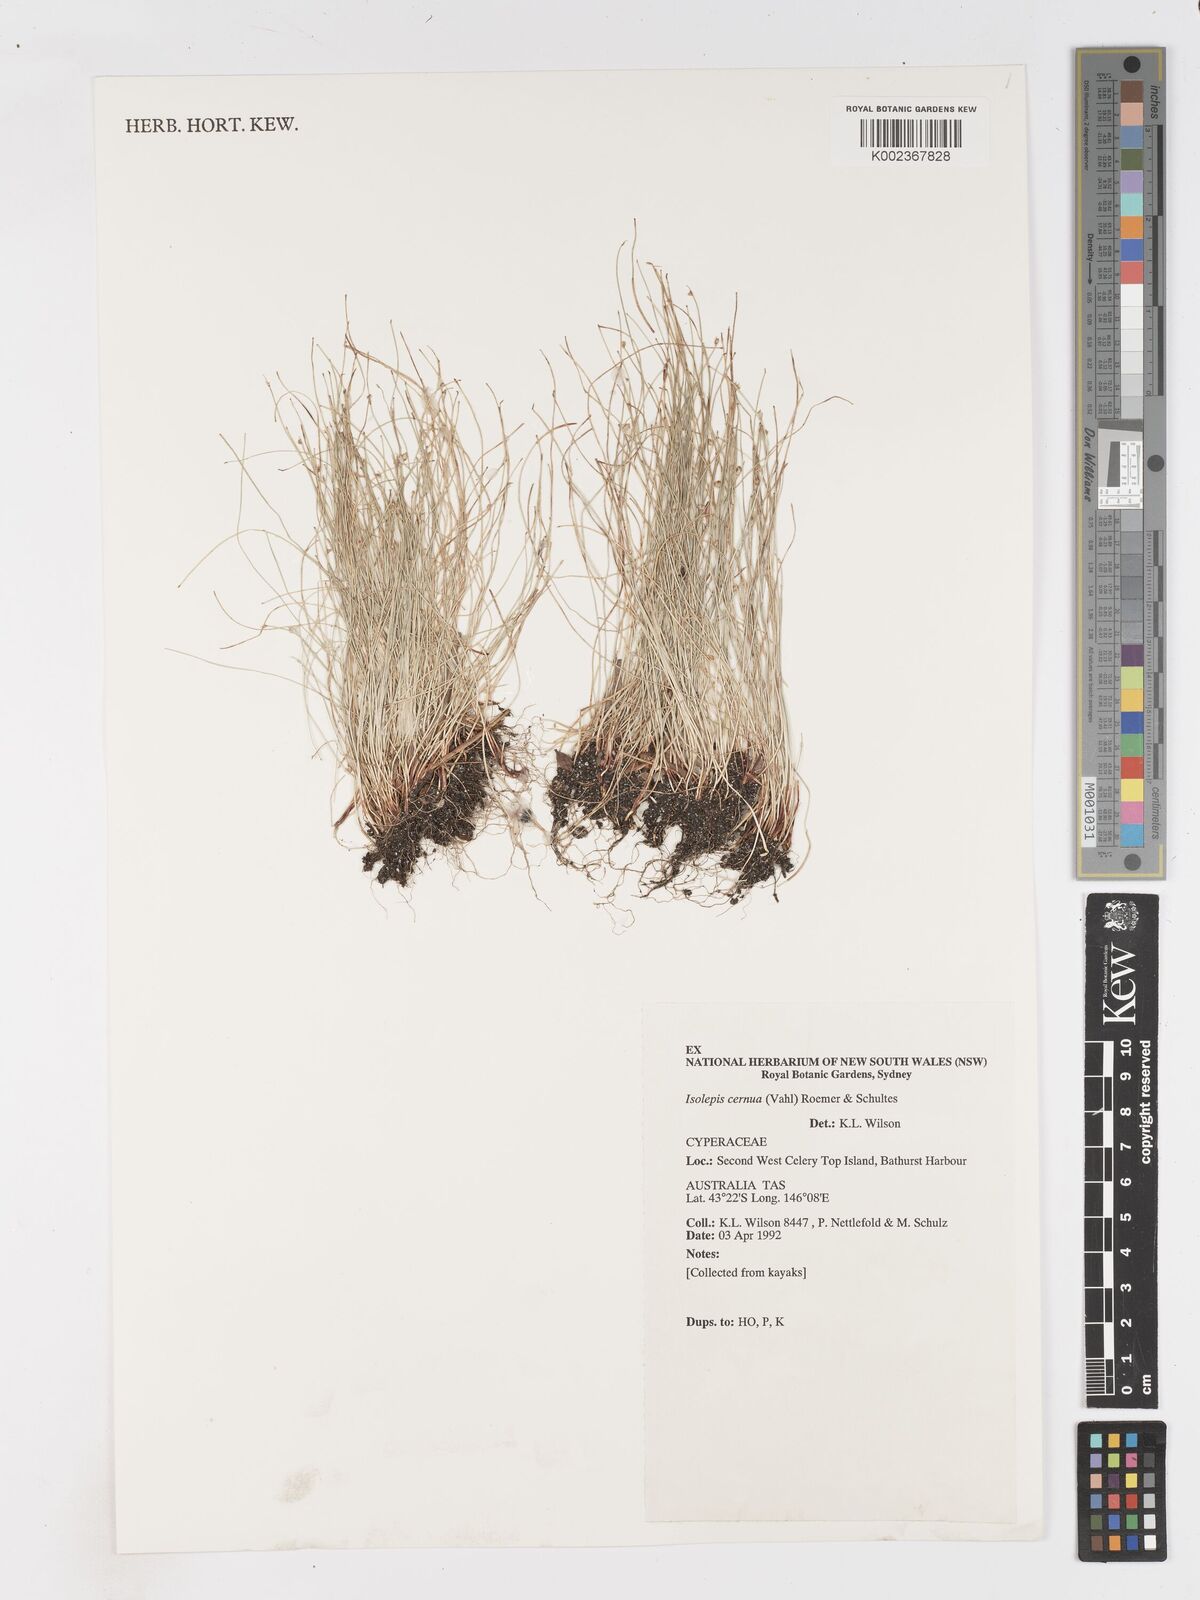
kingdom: Plantae
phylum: Tracheophyta
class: Liliopsida
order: Poales
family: Cyperaceae
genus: Isolepis
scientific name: Isolepis cernua
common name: Slender club-rush
